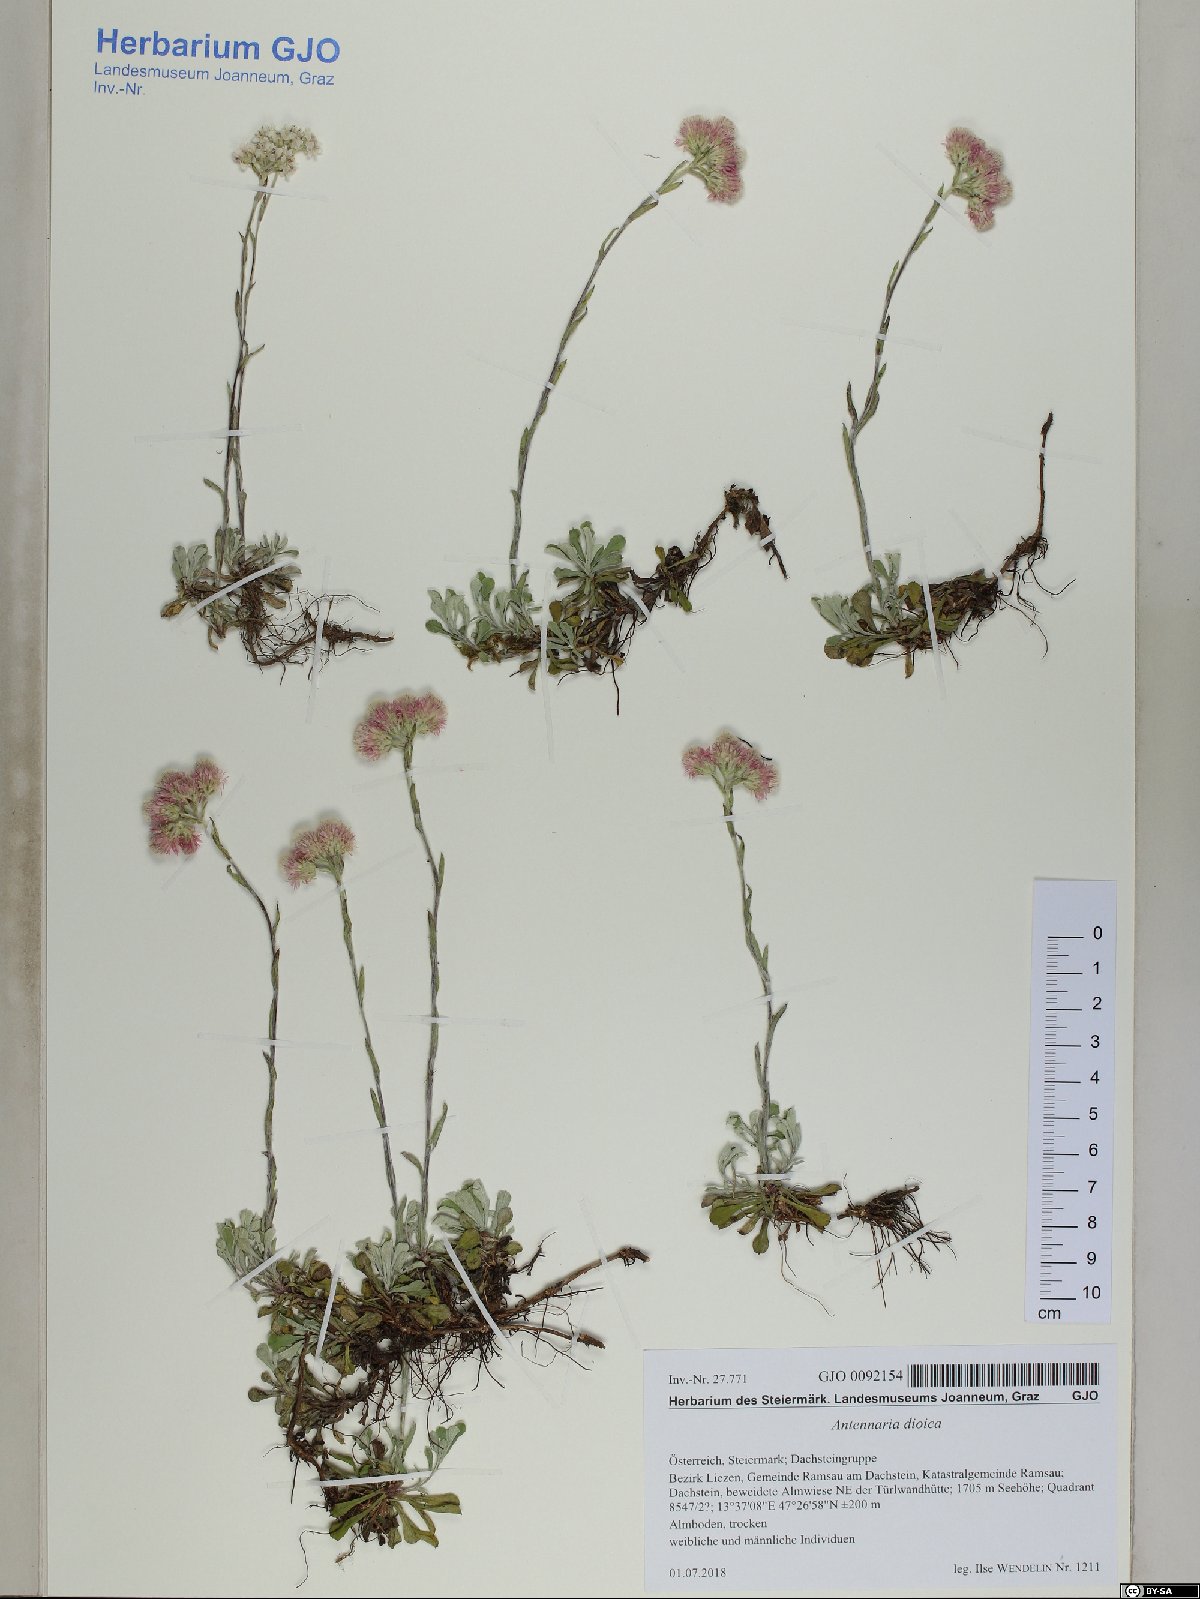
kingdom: Plantae
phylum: Tracheophyta
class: Magnoliopsida
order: Asterales
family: Asteraceae
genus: Antennaria
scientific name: Antennaria dioica
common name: Mountain everlasting
